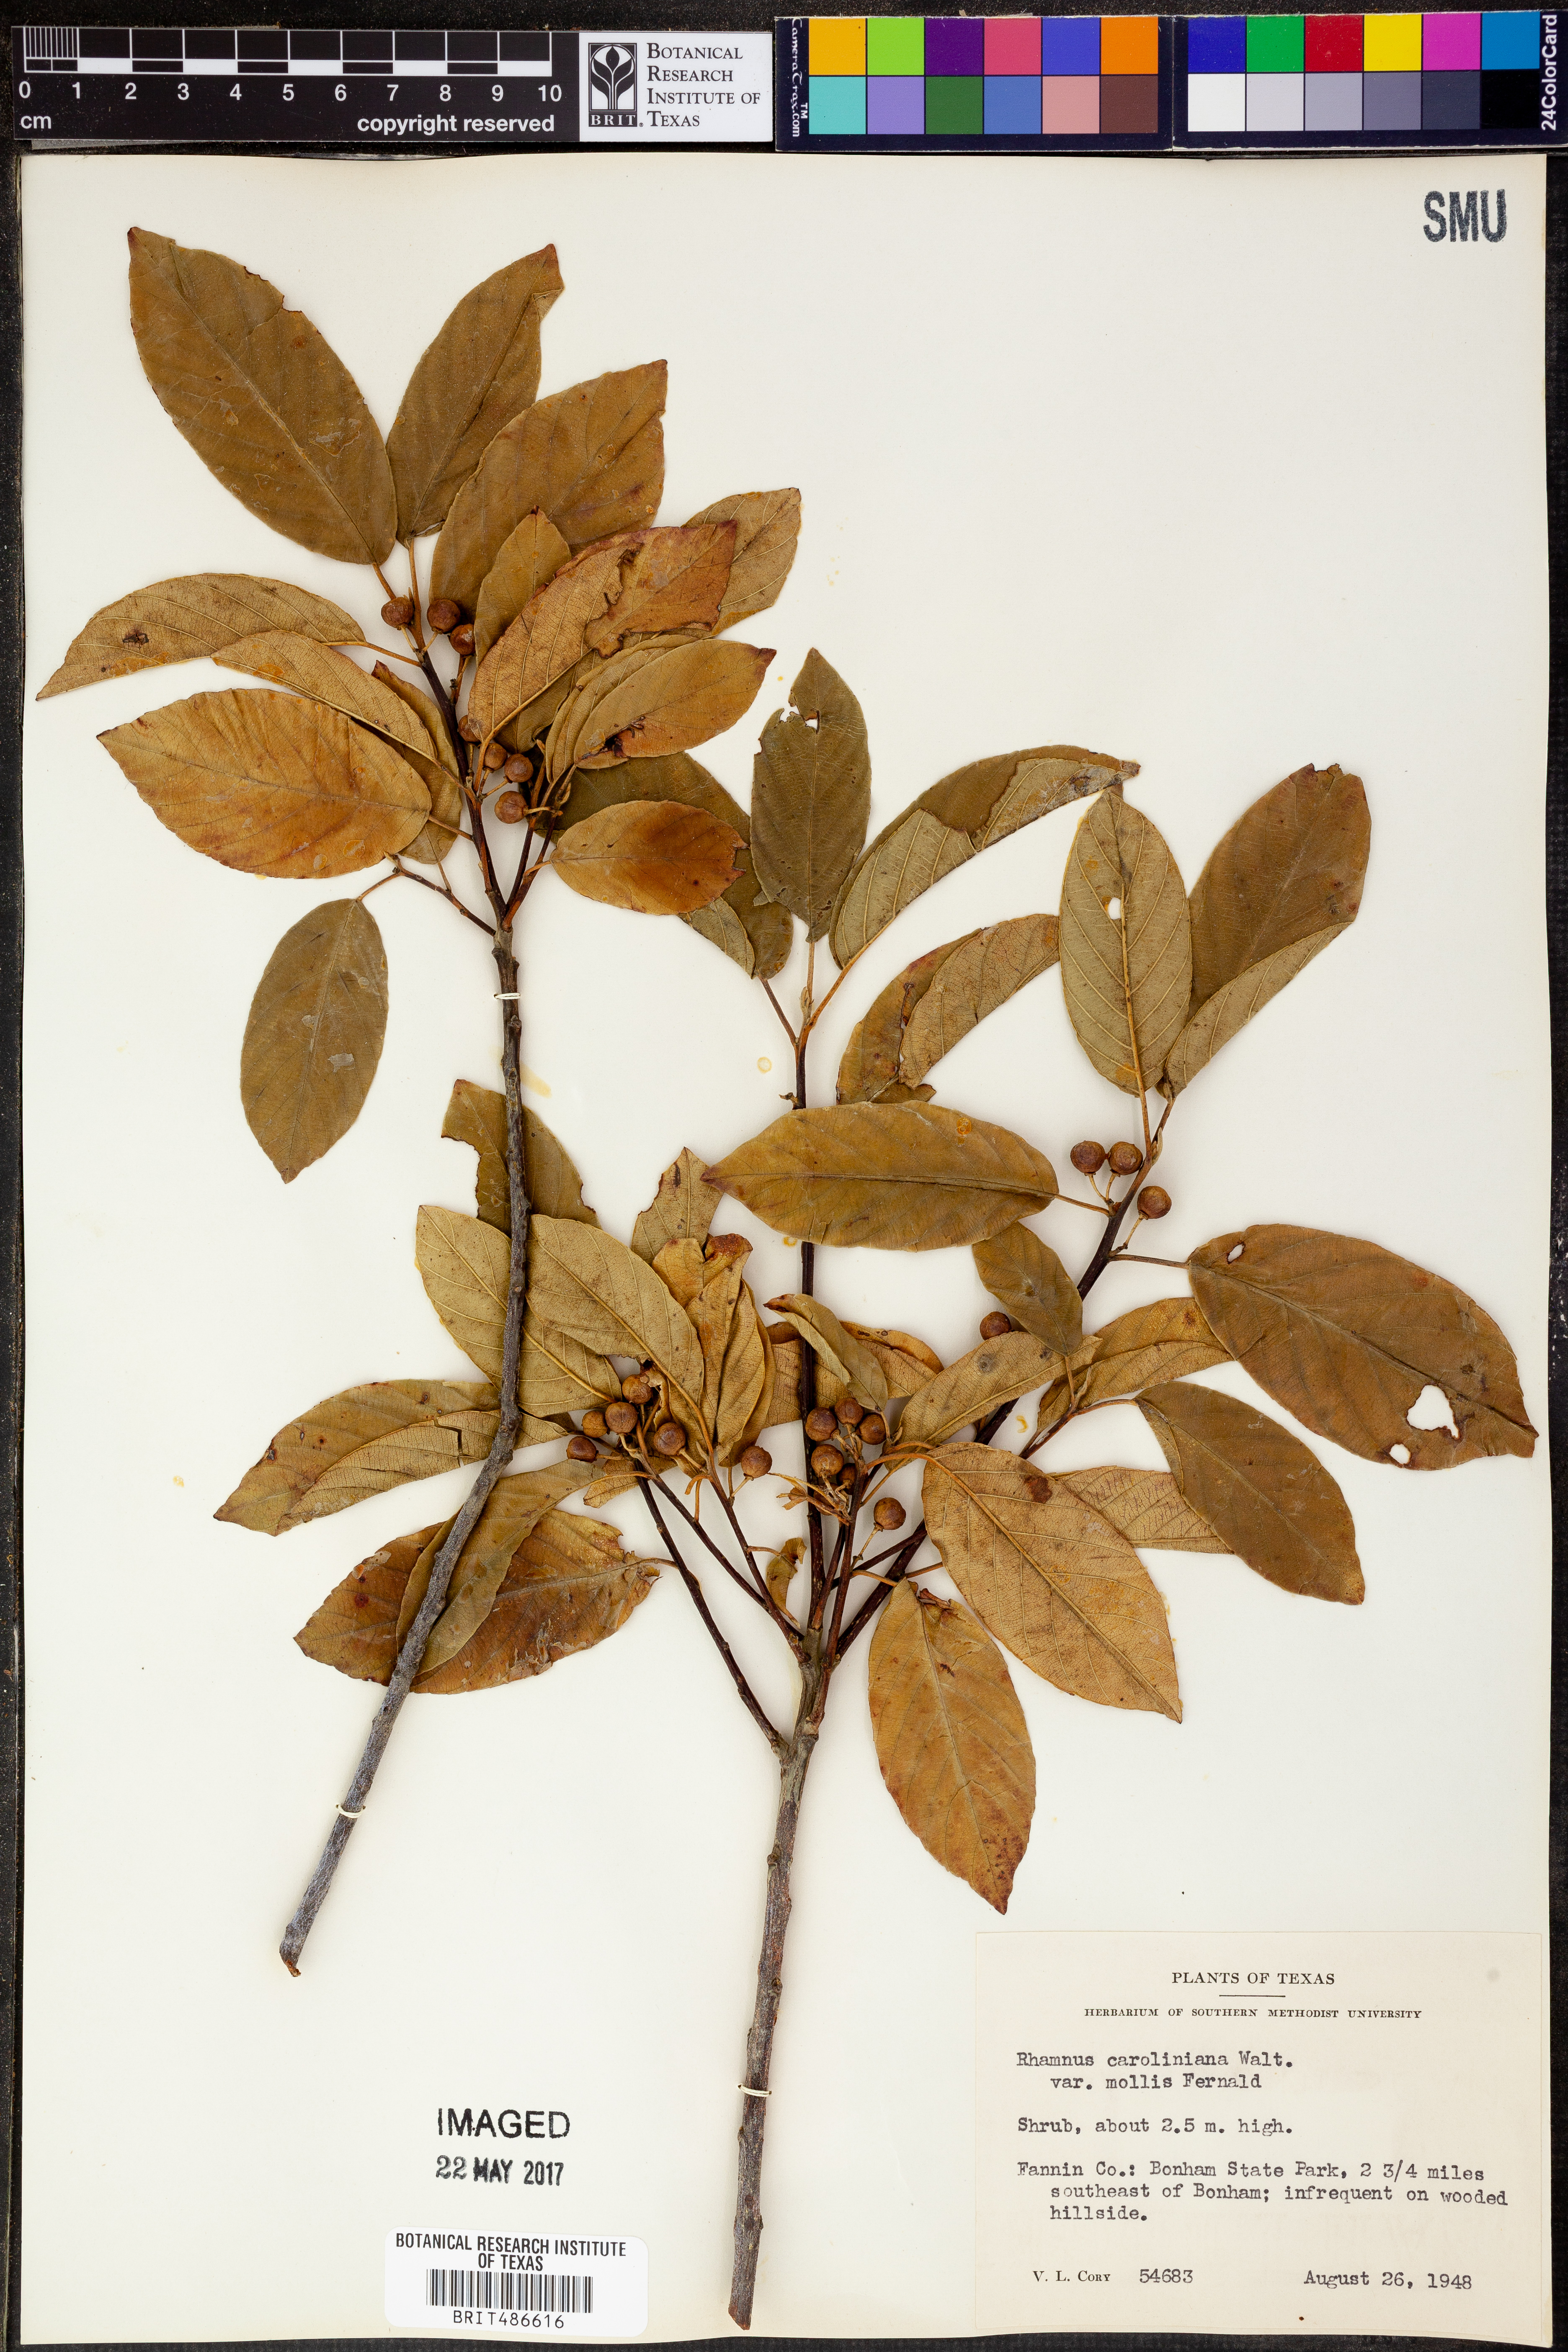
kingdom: Plantae
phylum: Tracheophyta
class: Magnoliopsida
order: Rosales
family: Rhamnaceae
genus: Frangula
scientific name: Frangula caroliniana
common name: Carolina buckthorn
